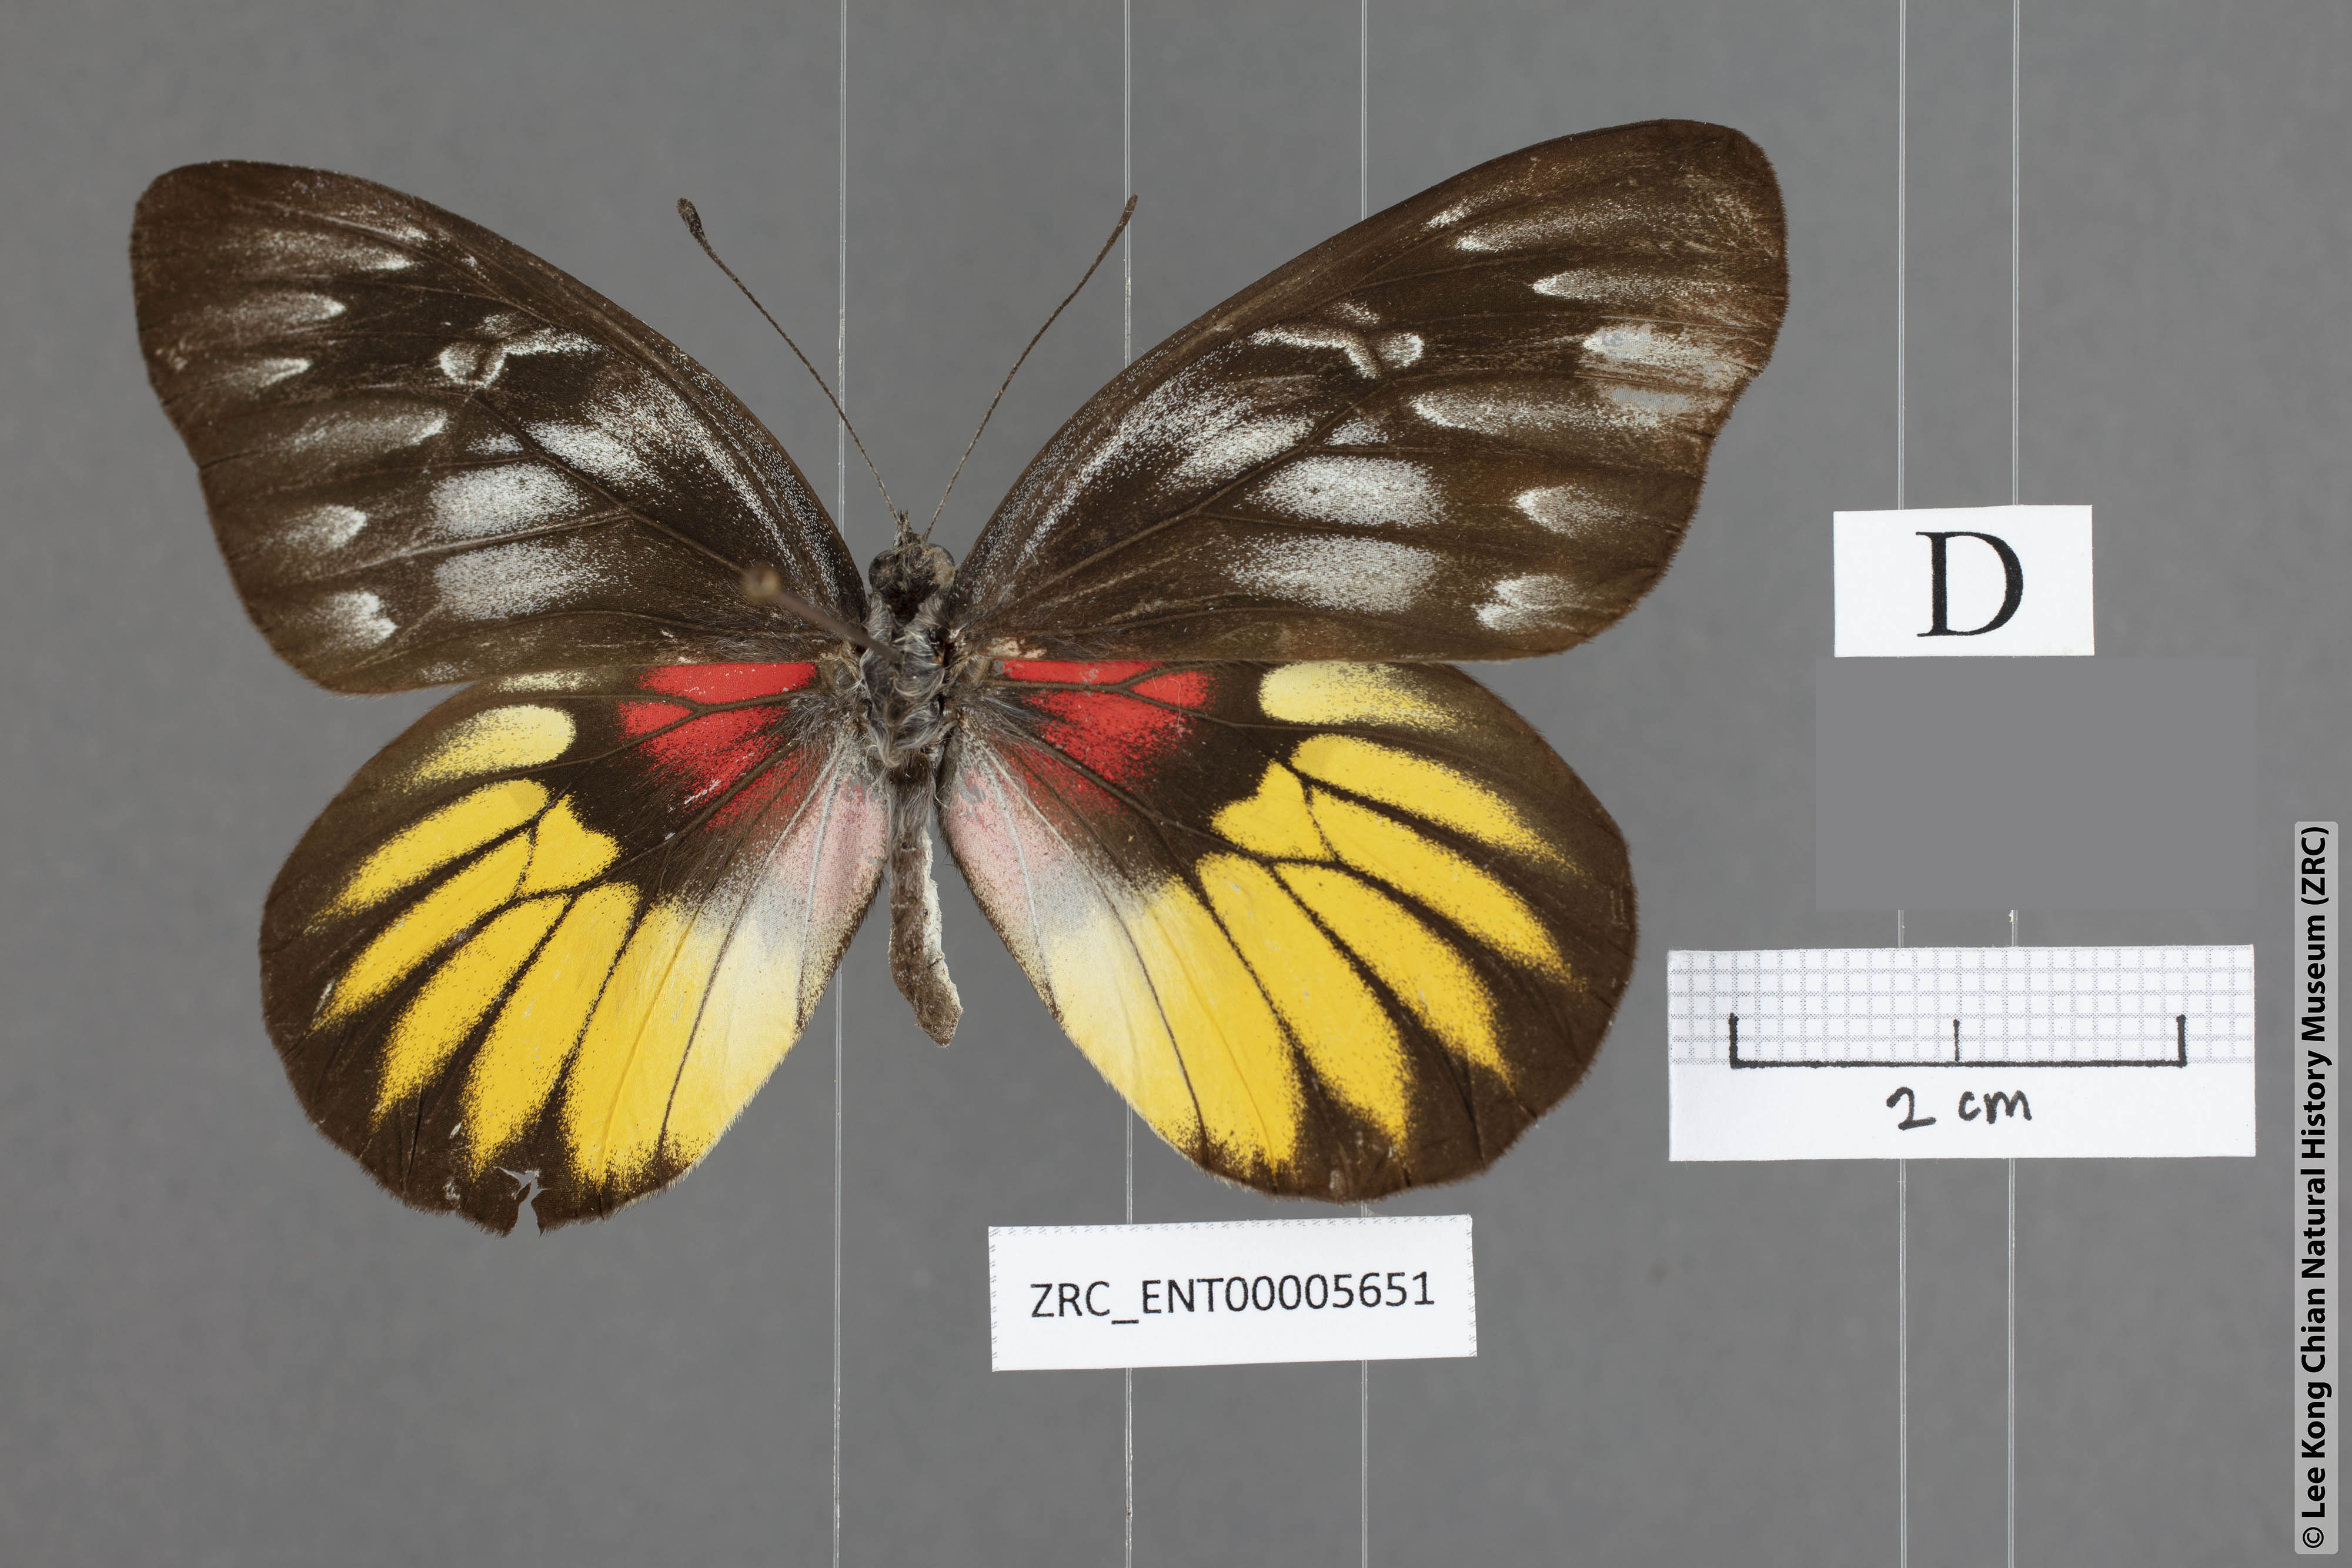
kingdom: Animalia
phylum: Arthropoda
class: Insecta
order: Lepidoptera
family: Pieridae
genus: Delias
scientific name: Delias acalis
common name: Red-breast jezebel
